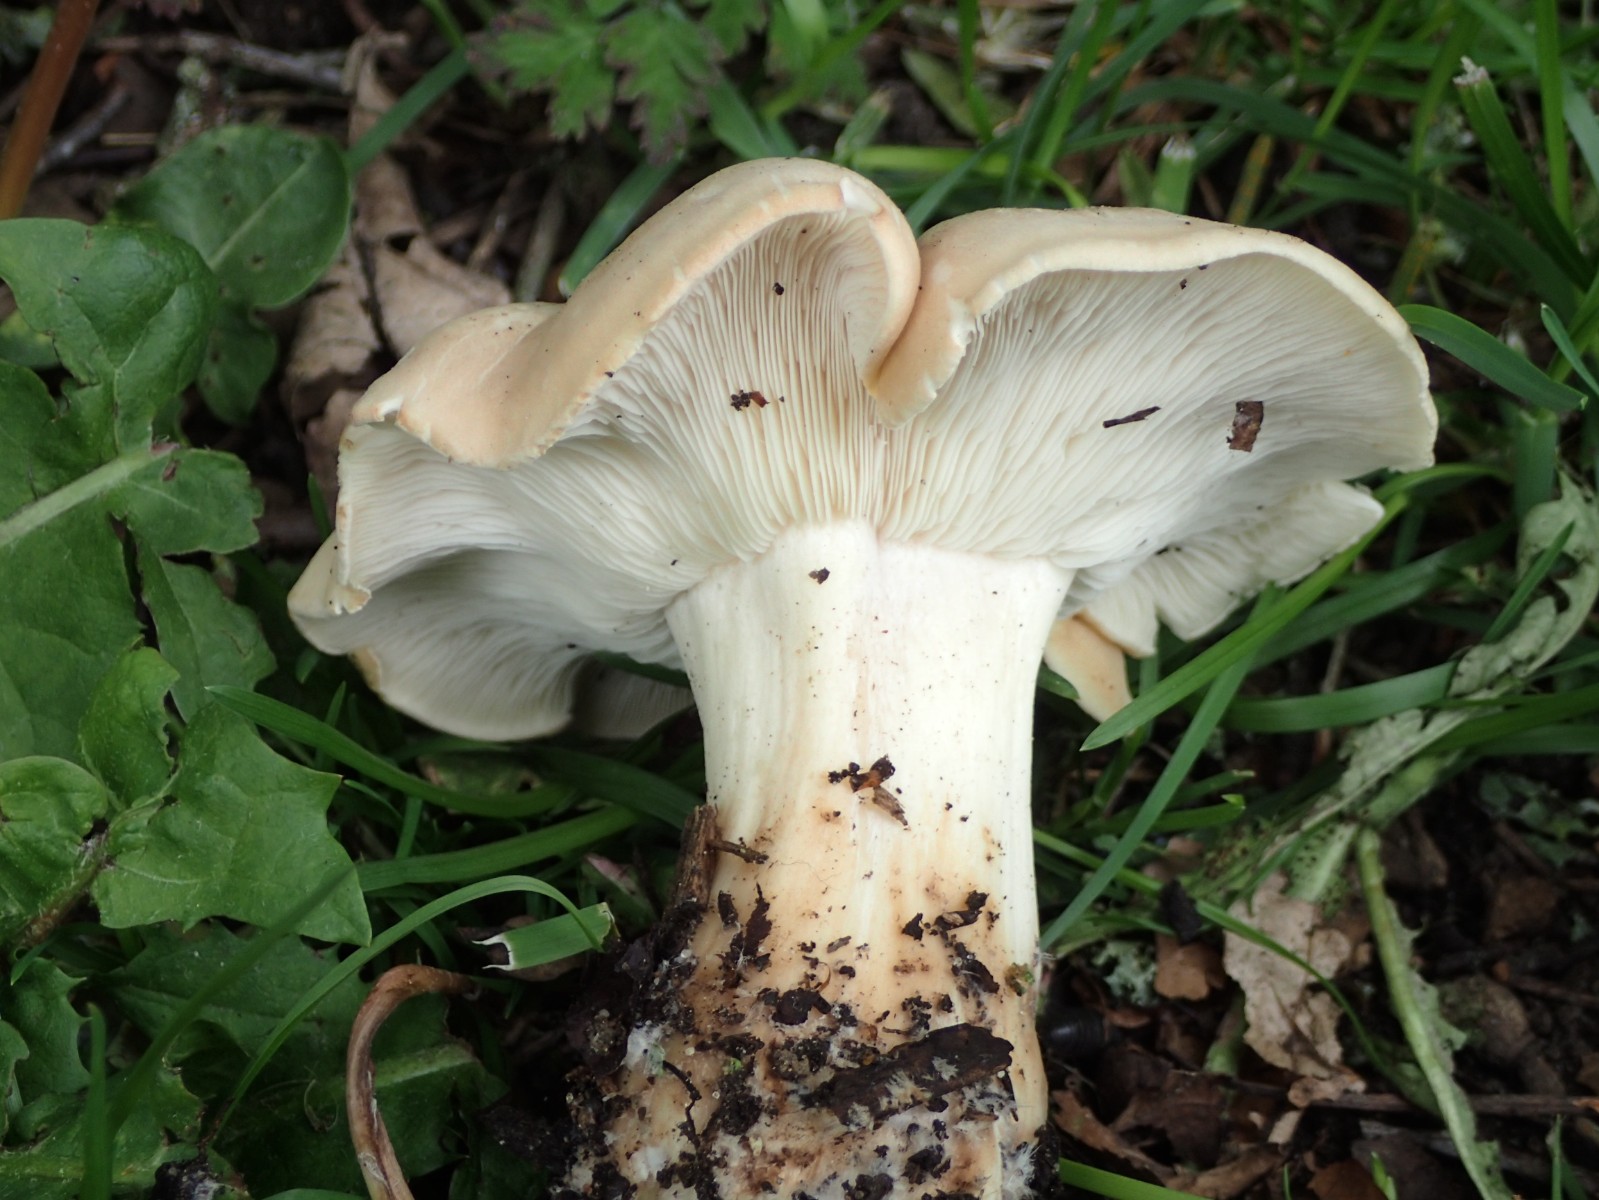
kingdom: Fungi
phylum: Basidiomycota
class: Agaricomycetes
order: Agaricales
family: Lyophyllaceae
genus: Calocybe
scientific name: Calocybe gambosa
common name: vårmusseron
